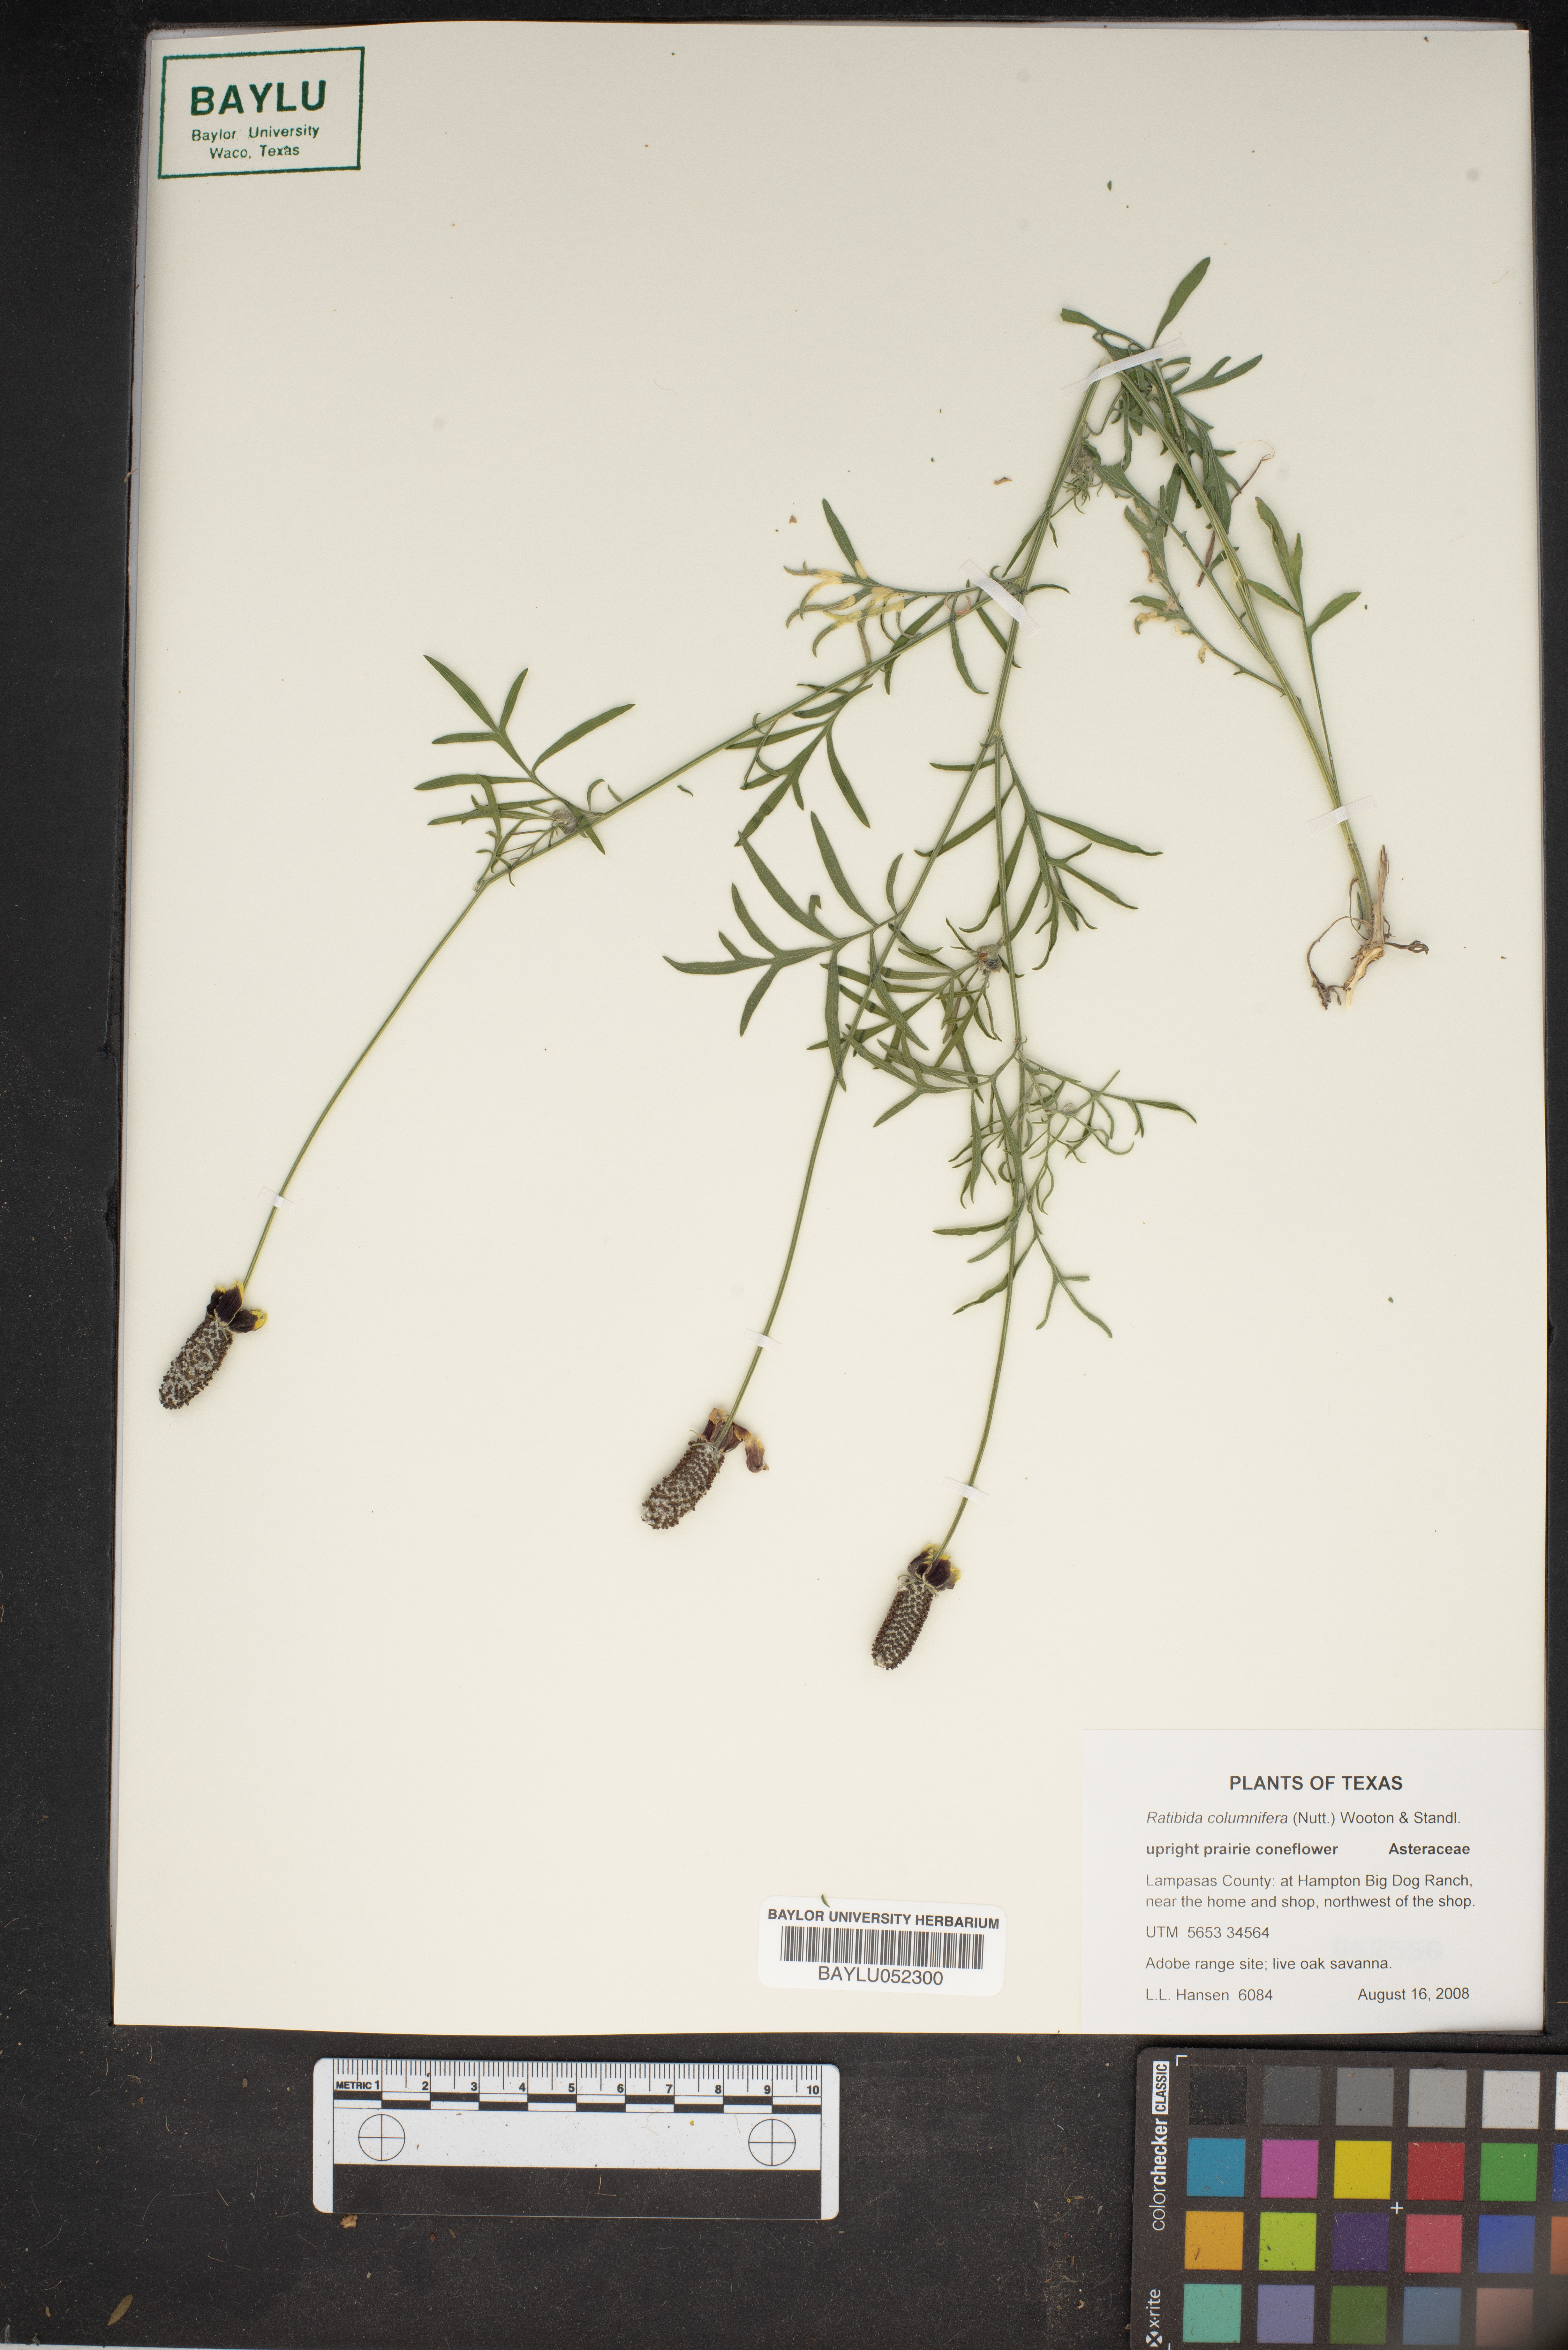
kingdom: Plantae
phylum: Tracheophyta
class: Magnoliopsida
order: Asterales
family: Asteraceae
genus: Ratibida
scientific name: Ratibida columnifera
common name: Prairie coneflower
